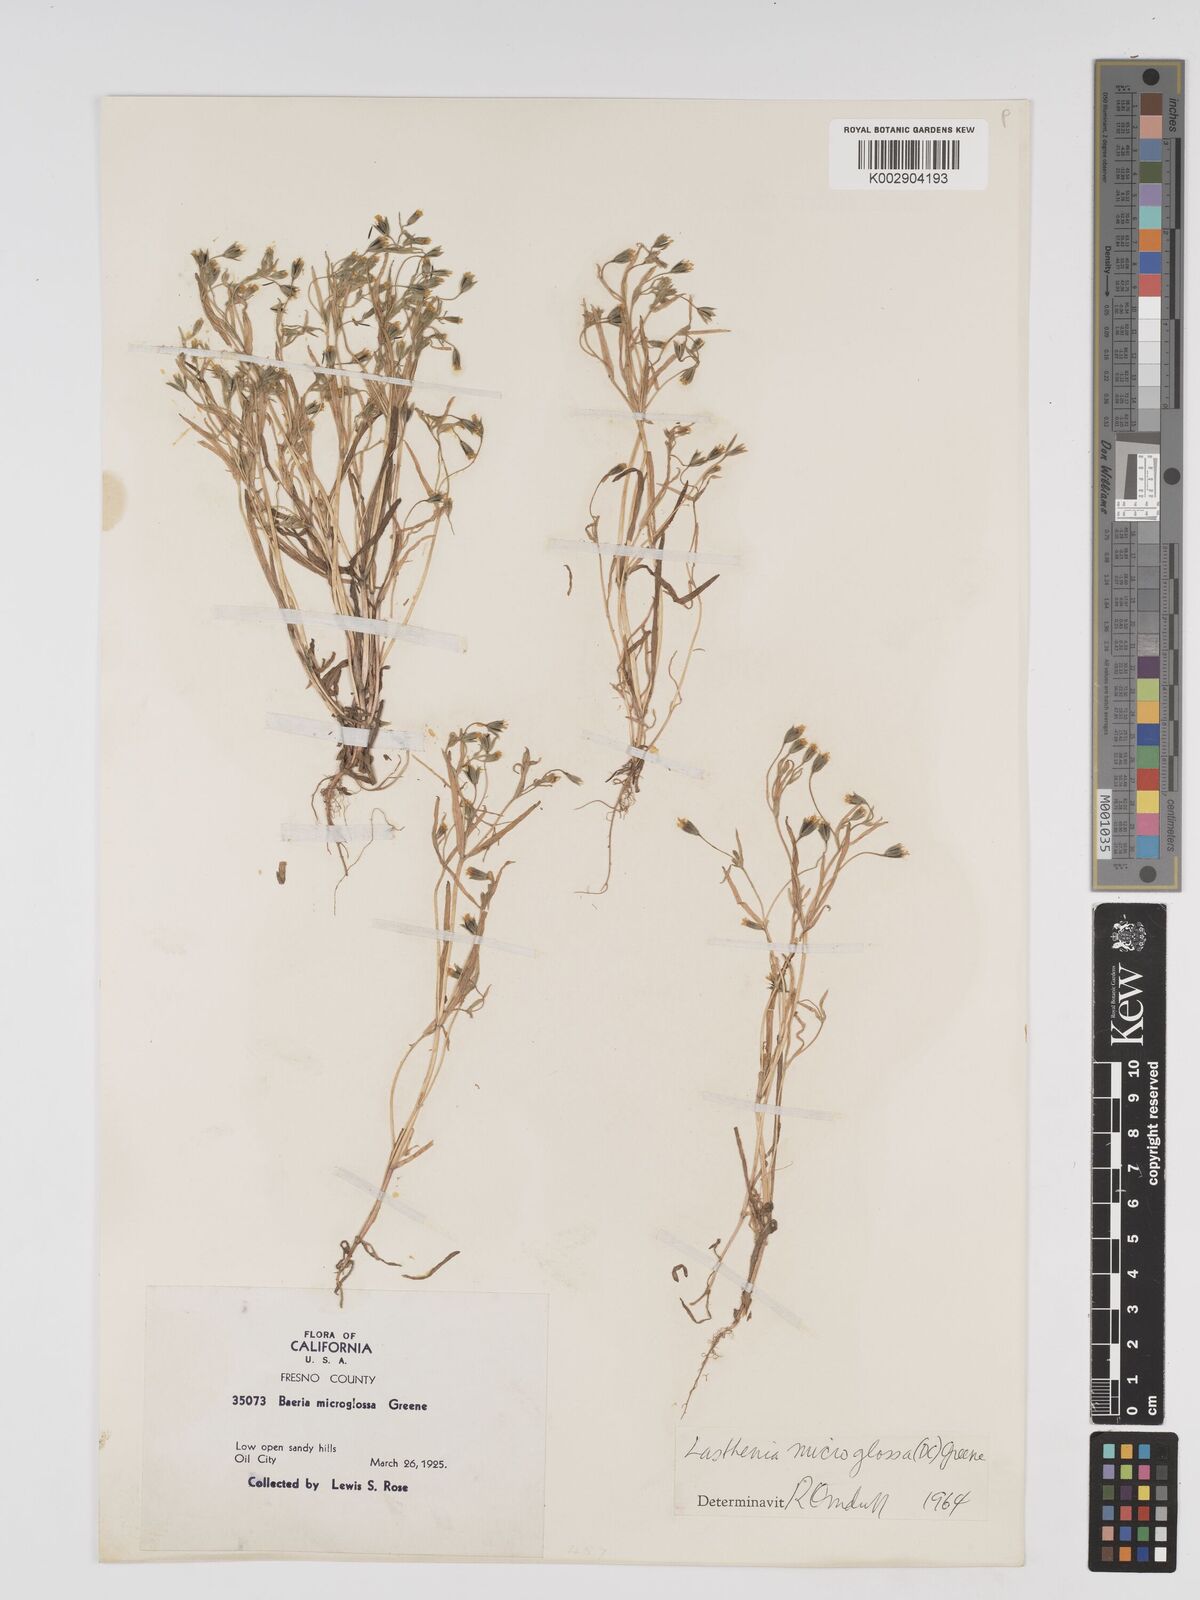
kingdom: Plantae
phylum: Tracheophyta
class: Magnoliopsida
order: Asterales
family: Asteraceae
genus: Lasthenia
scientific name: Lasthenia microglossa
